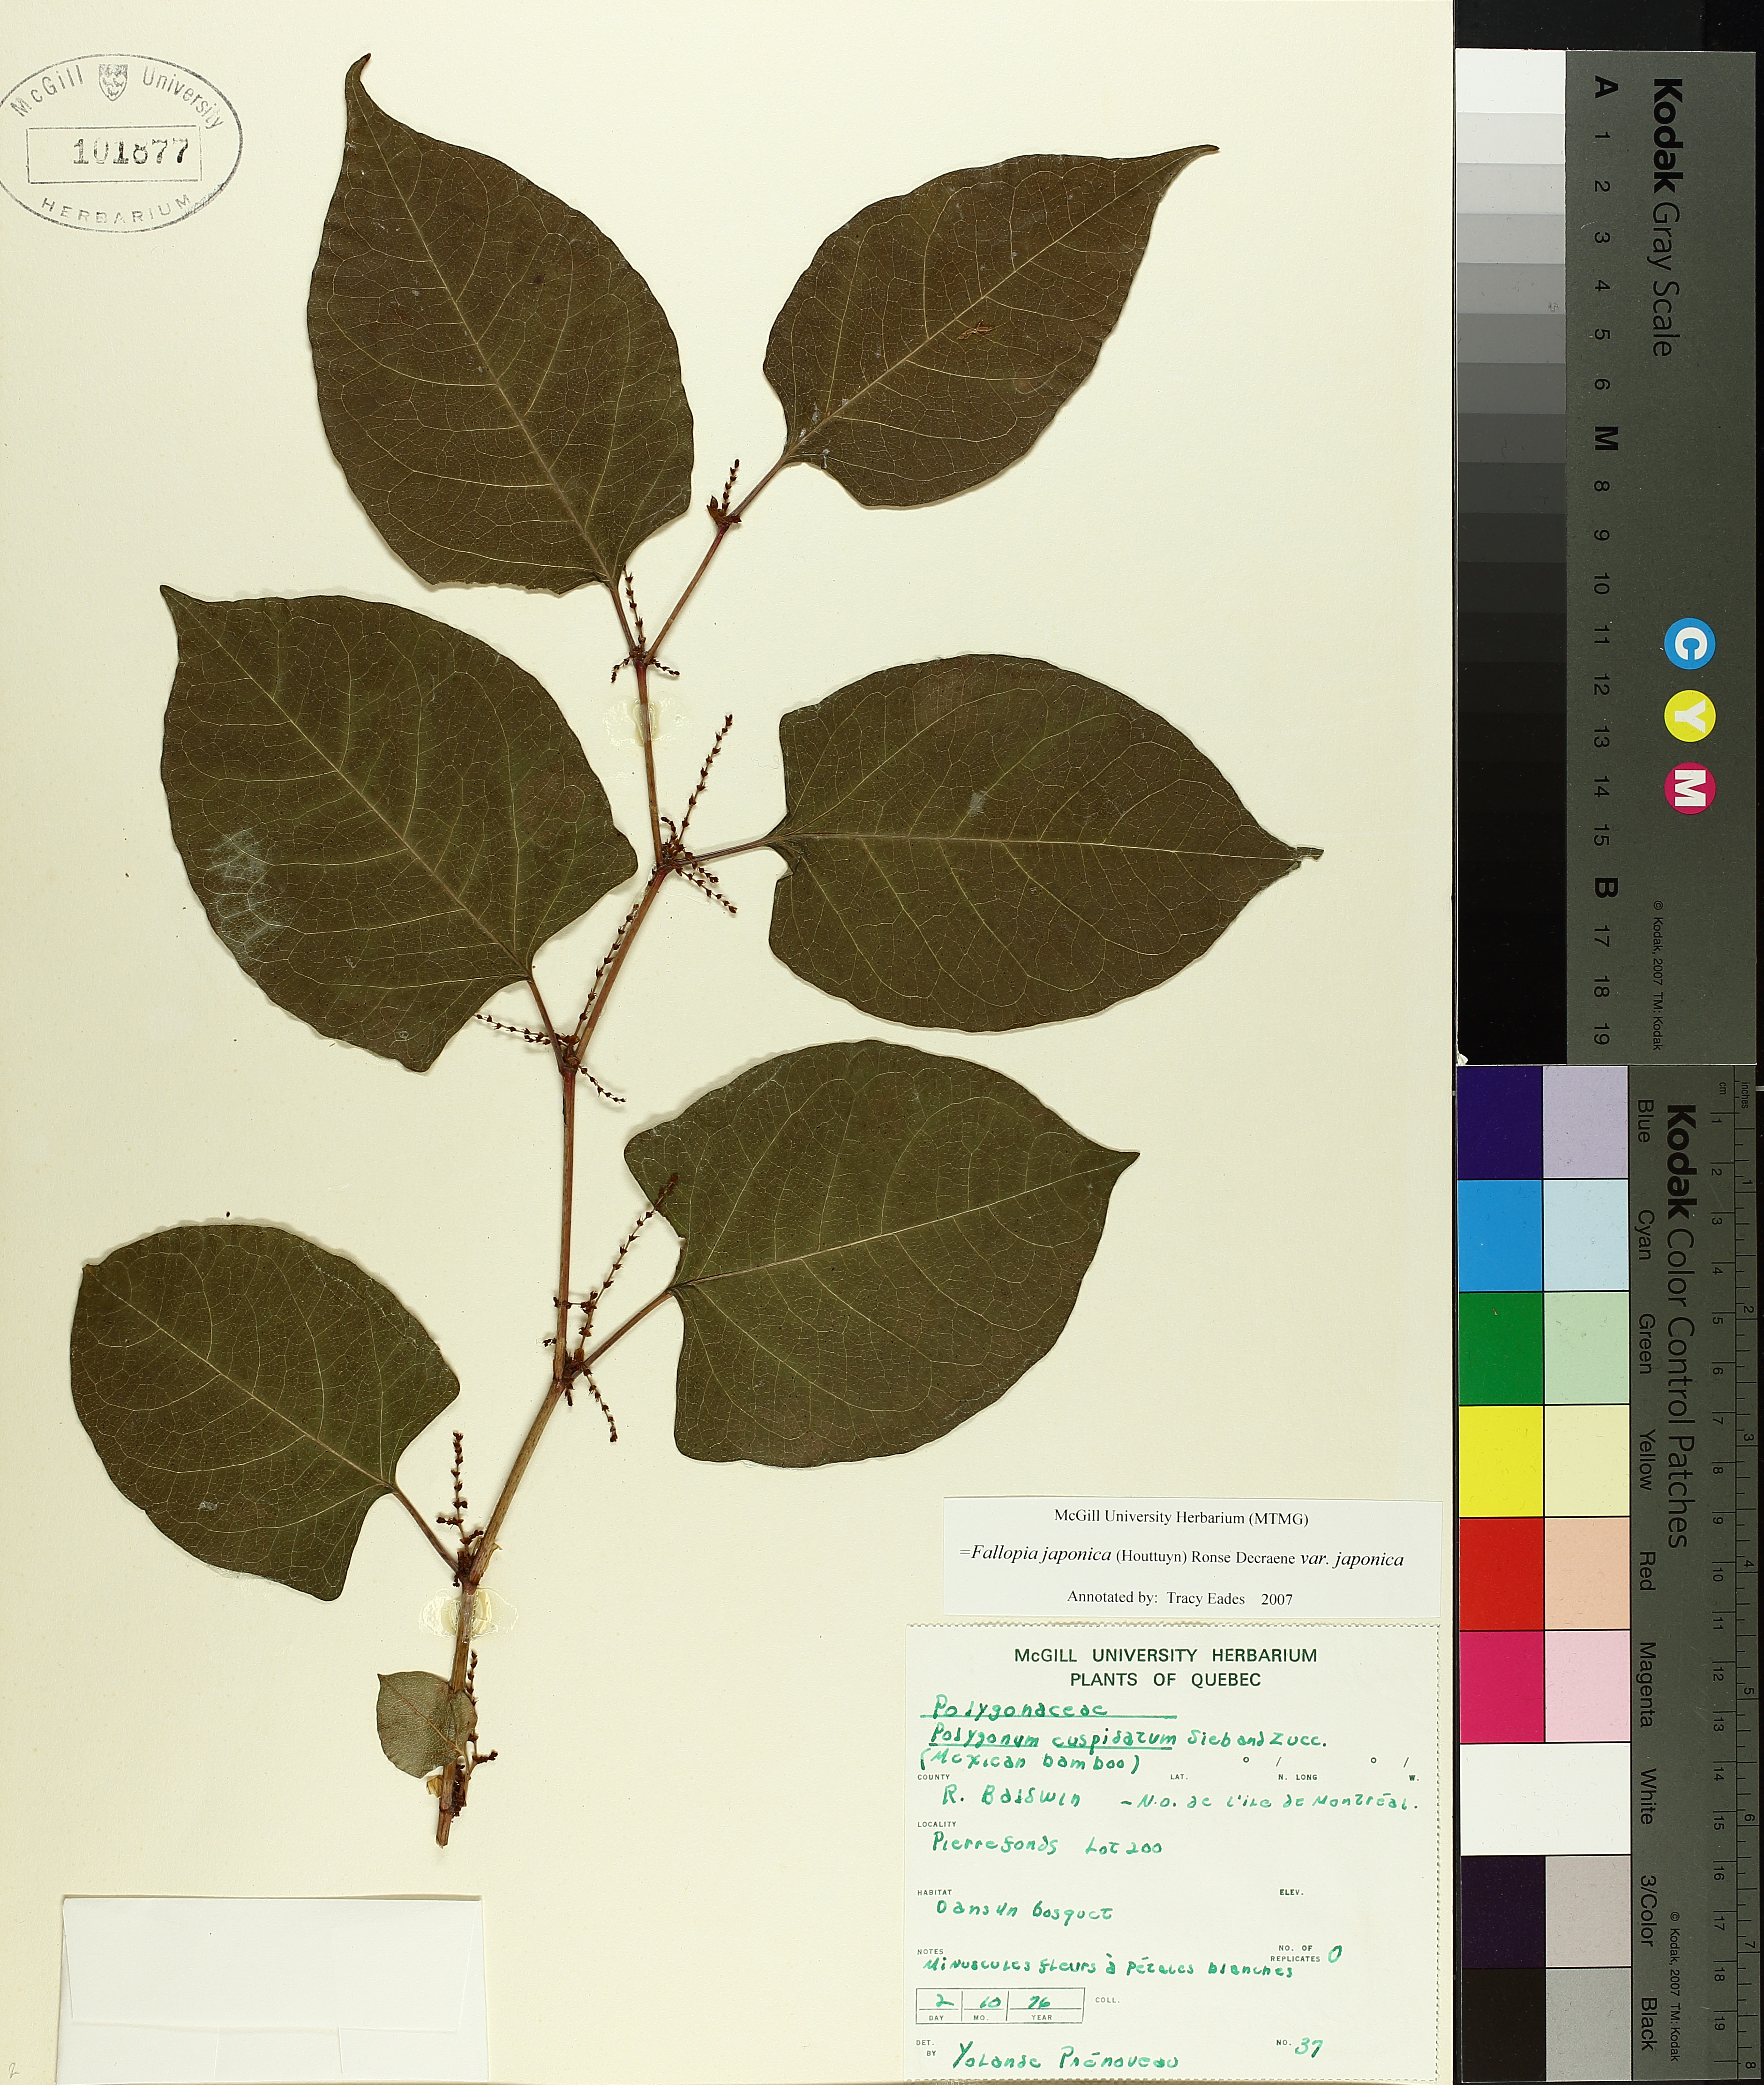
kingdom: Plantae
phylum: Tracheophyta
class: Magnoliopsida
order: Caryophyllales
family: Polygonaceae
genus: Reynoutria
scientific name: Reynoutria japonica
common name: Japanese knotweed
